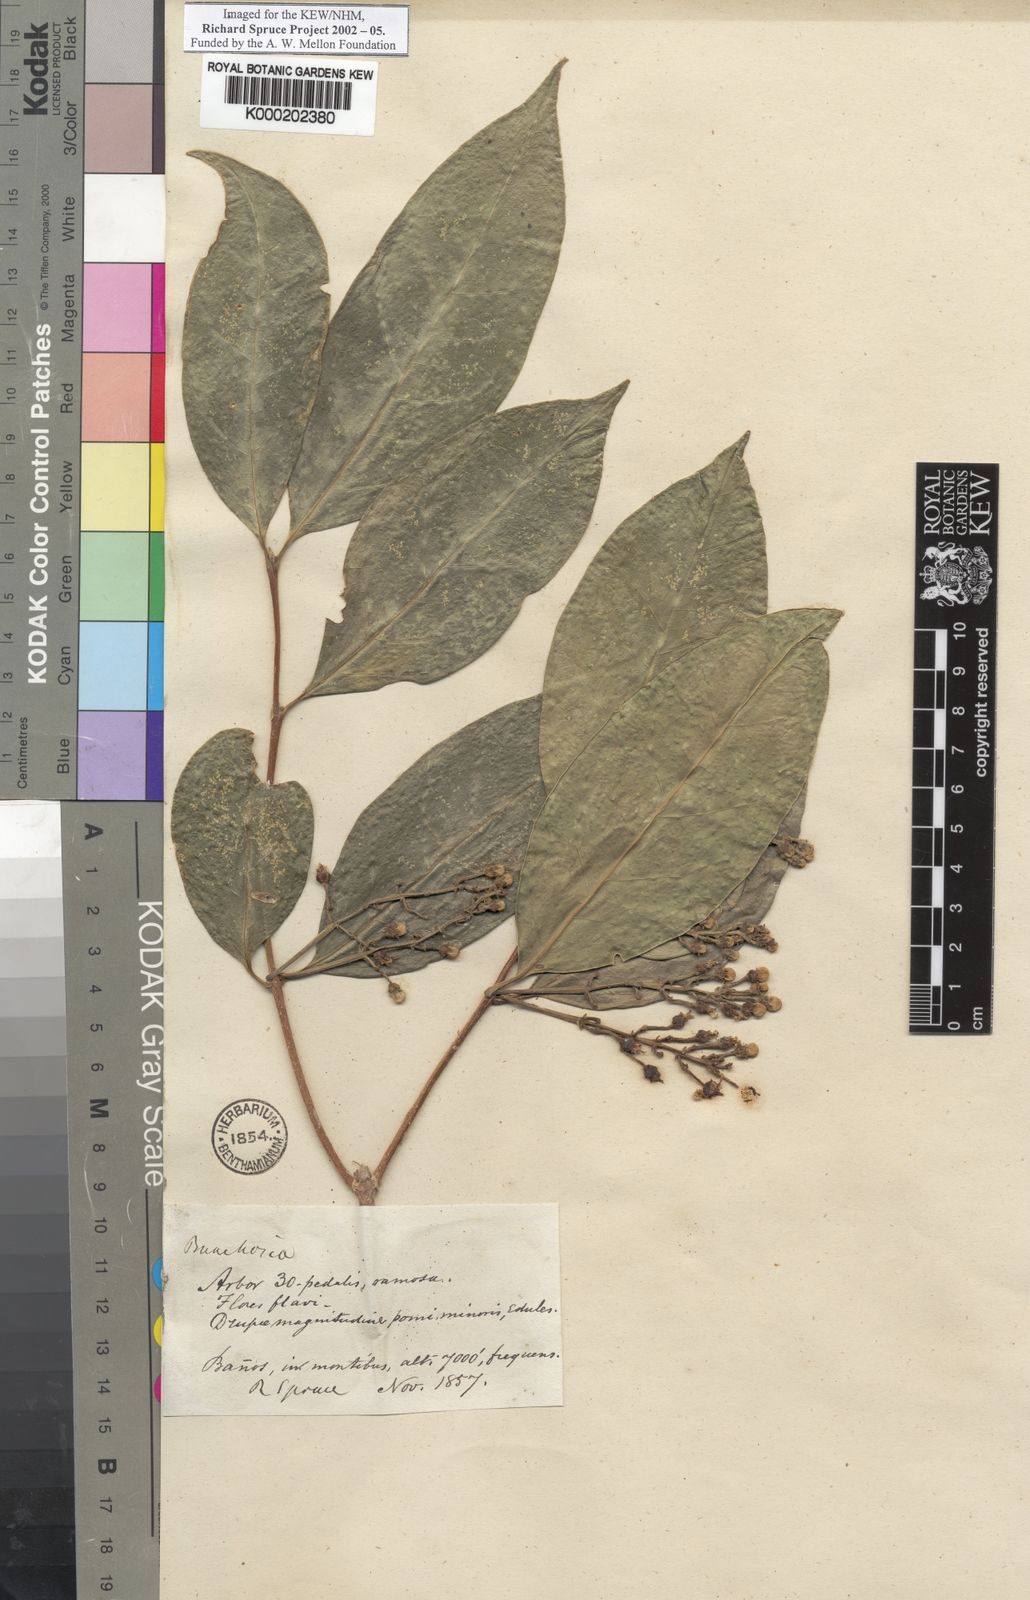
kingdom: Plantae
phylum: Tracheophyta
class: Magnoliopsida
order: Malpighiales
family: Malpighiaceae
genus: Bunchosia
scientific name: Bunchosia
